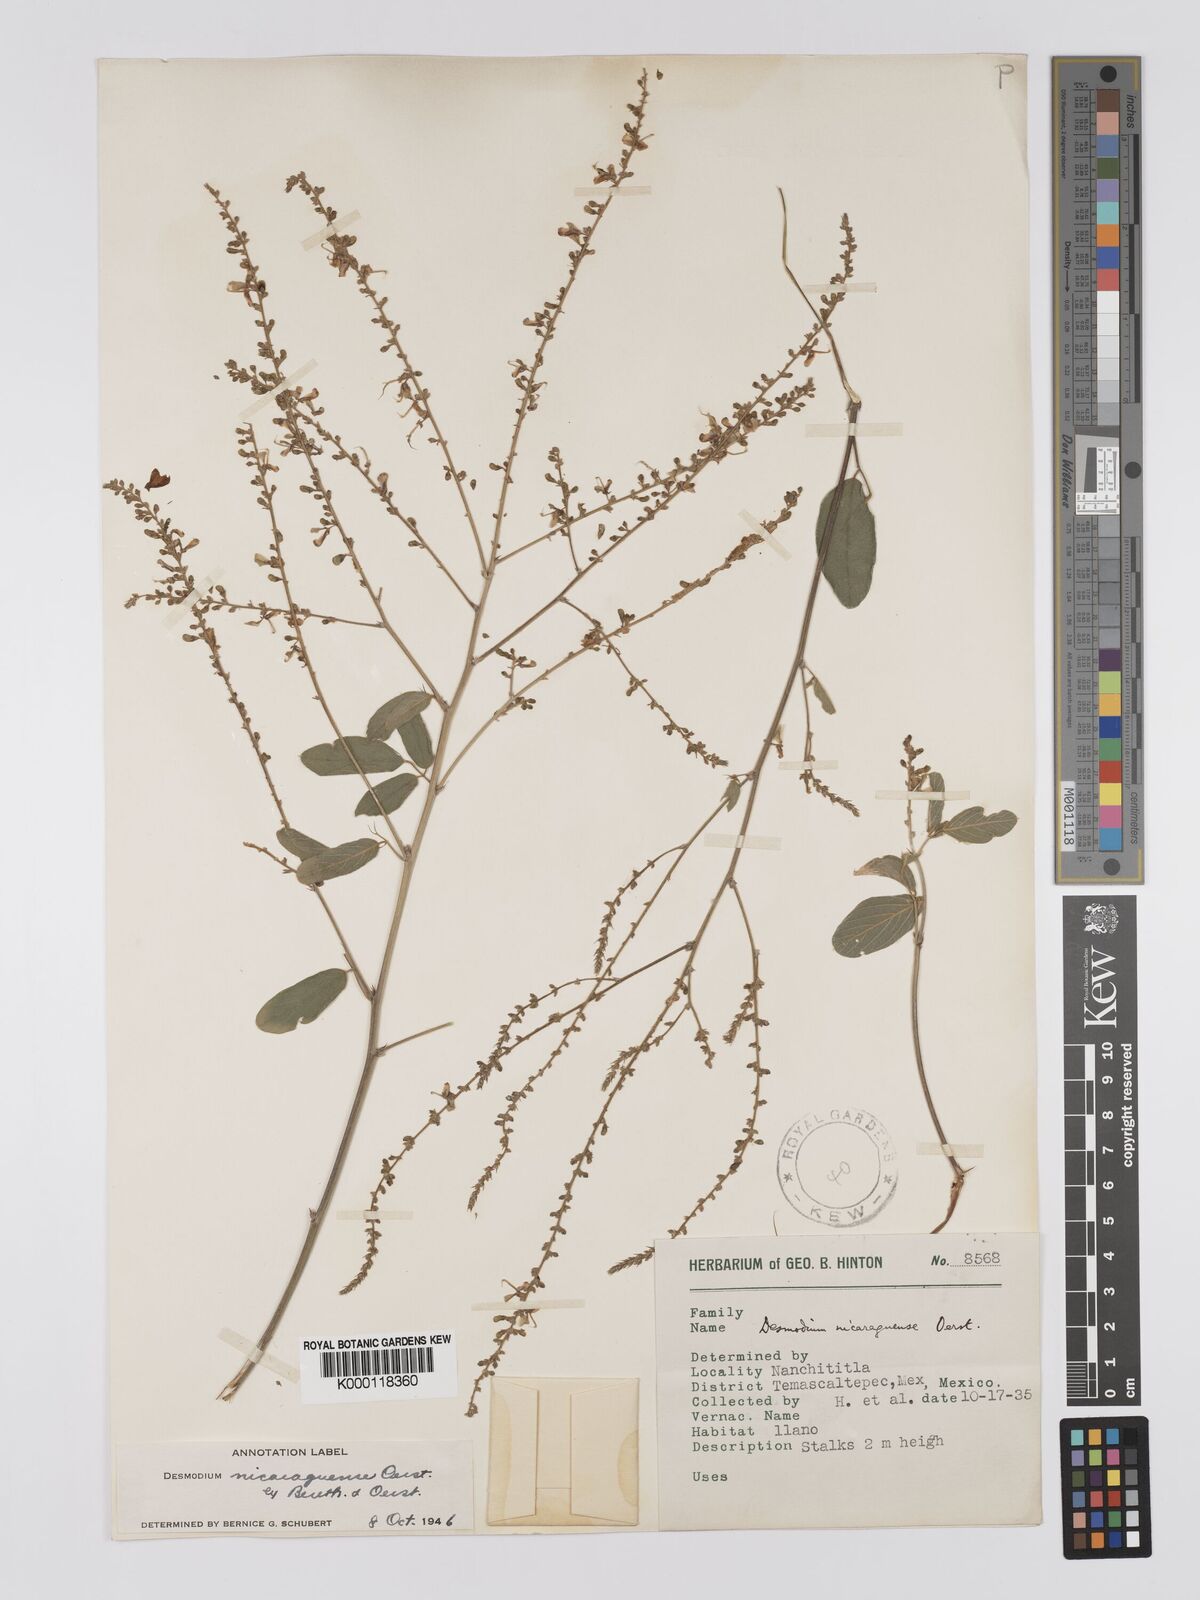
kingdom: Plantae
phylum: Tracheophyta
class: Magnoliopsida
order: Fabales
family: Fabaceae
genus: Desmodium
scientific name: Desmodium nicaraguense
